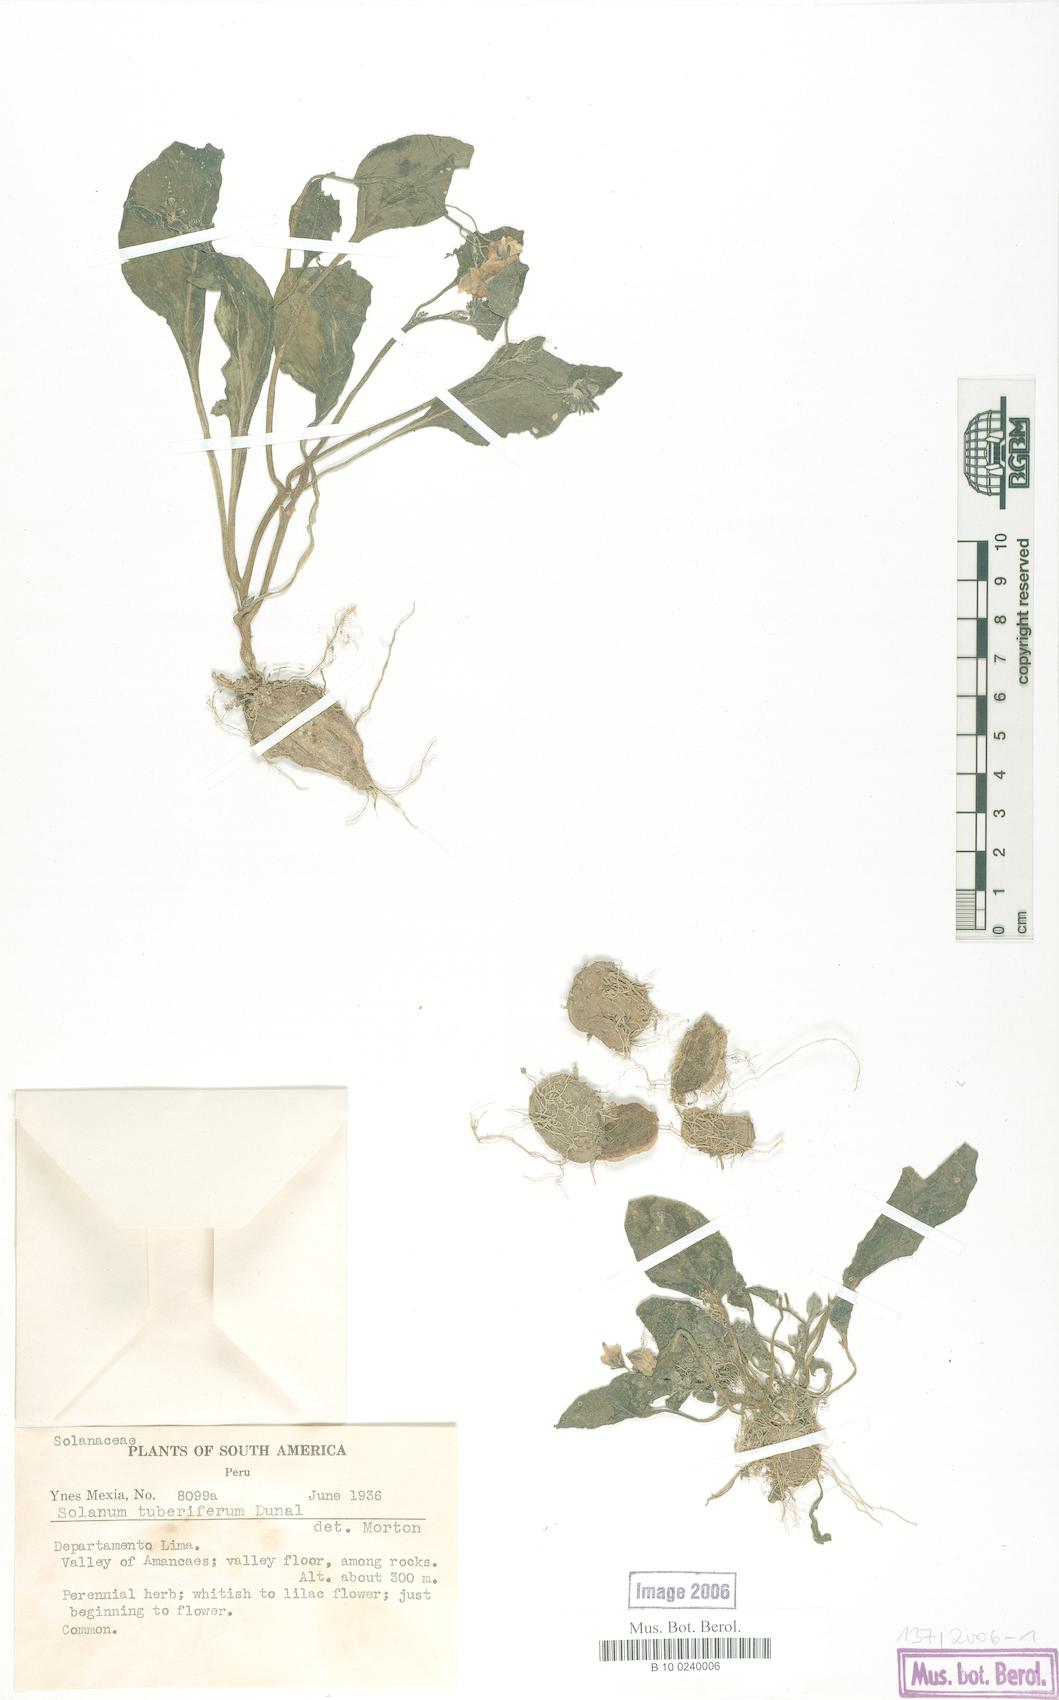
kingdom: Plantae
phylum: Tracheophyta
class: Magnoliopsida
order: Solanales
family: Solanaceae
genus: Solanum
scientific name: Solanum montanum
